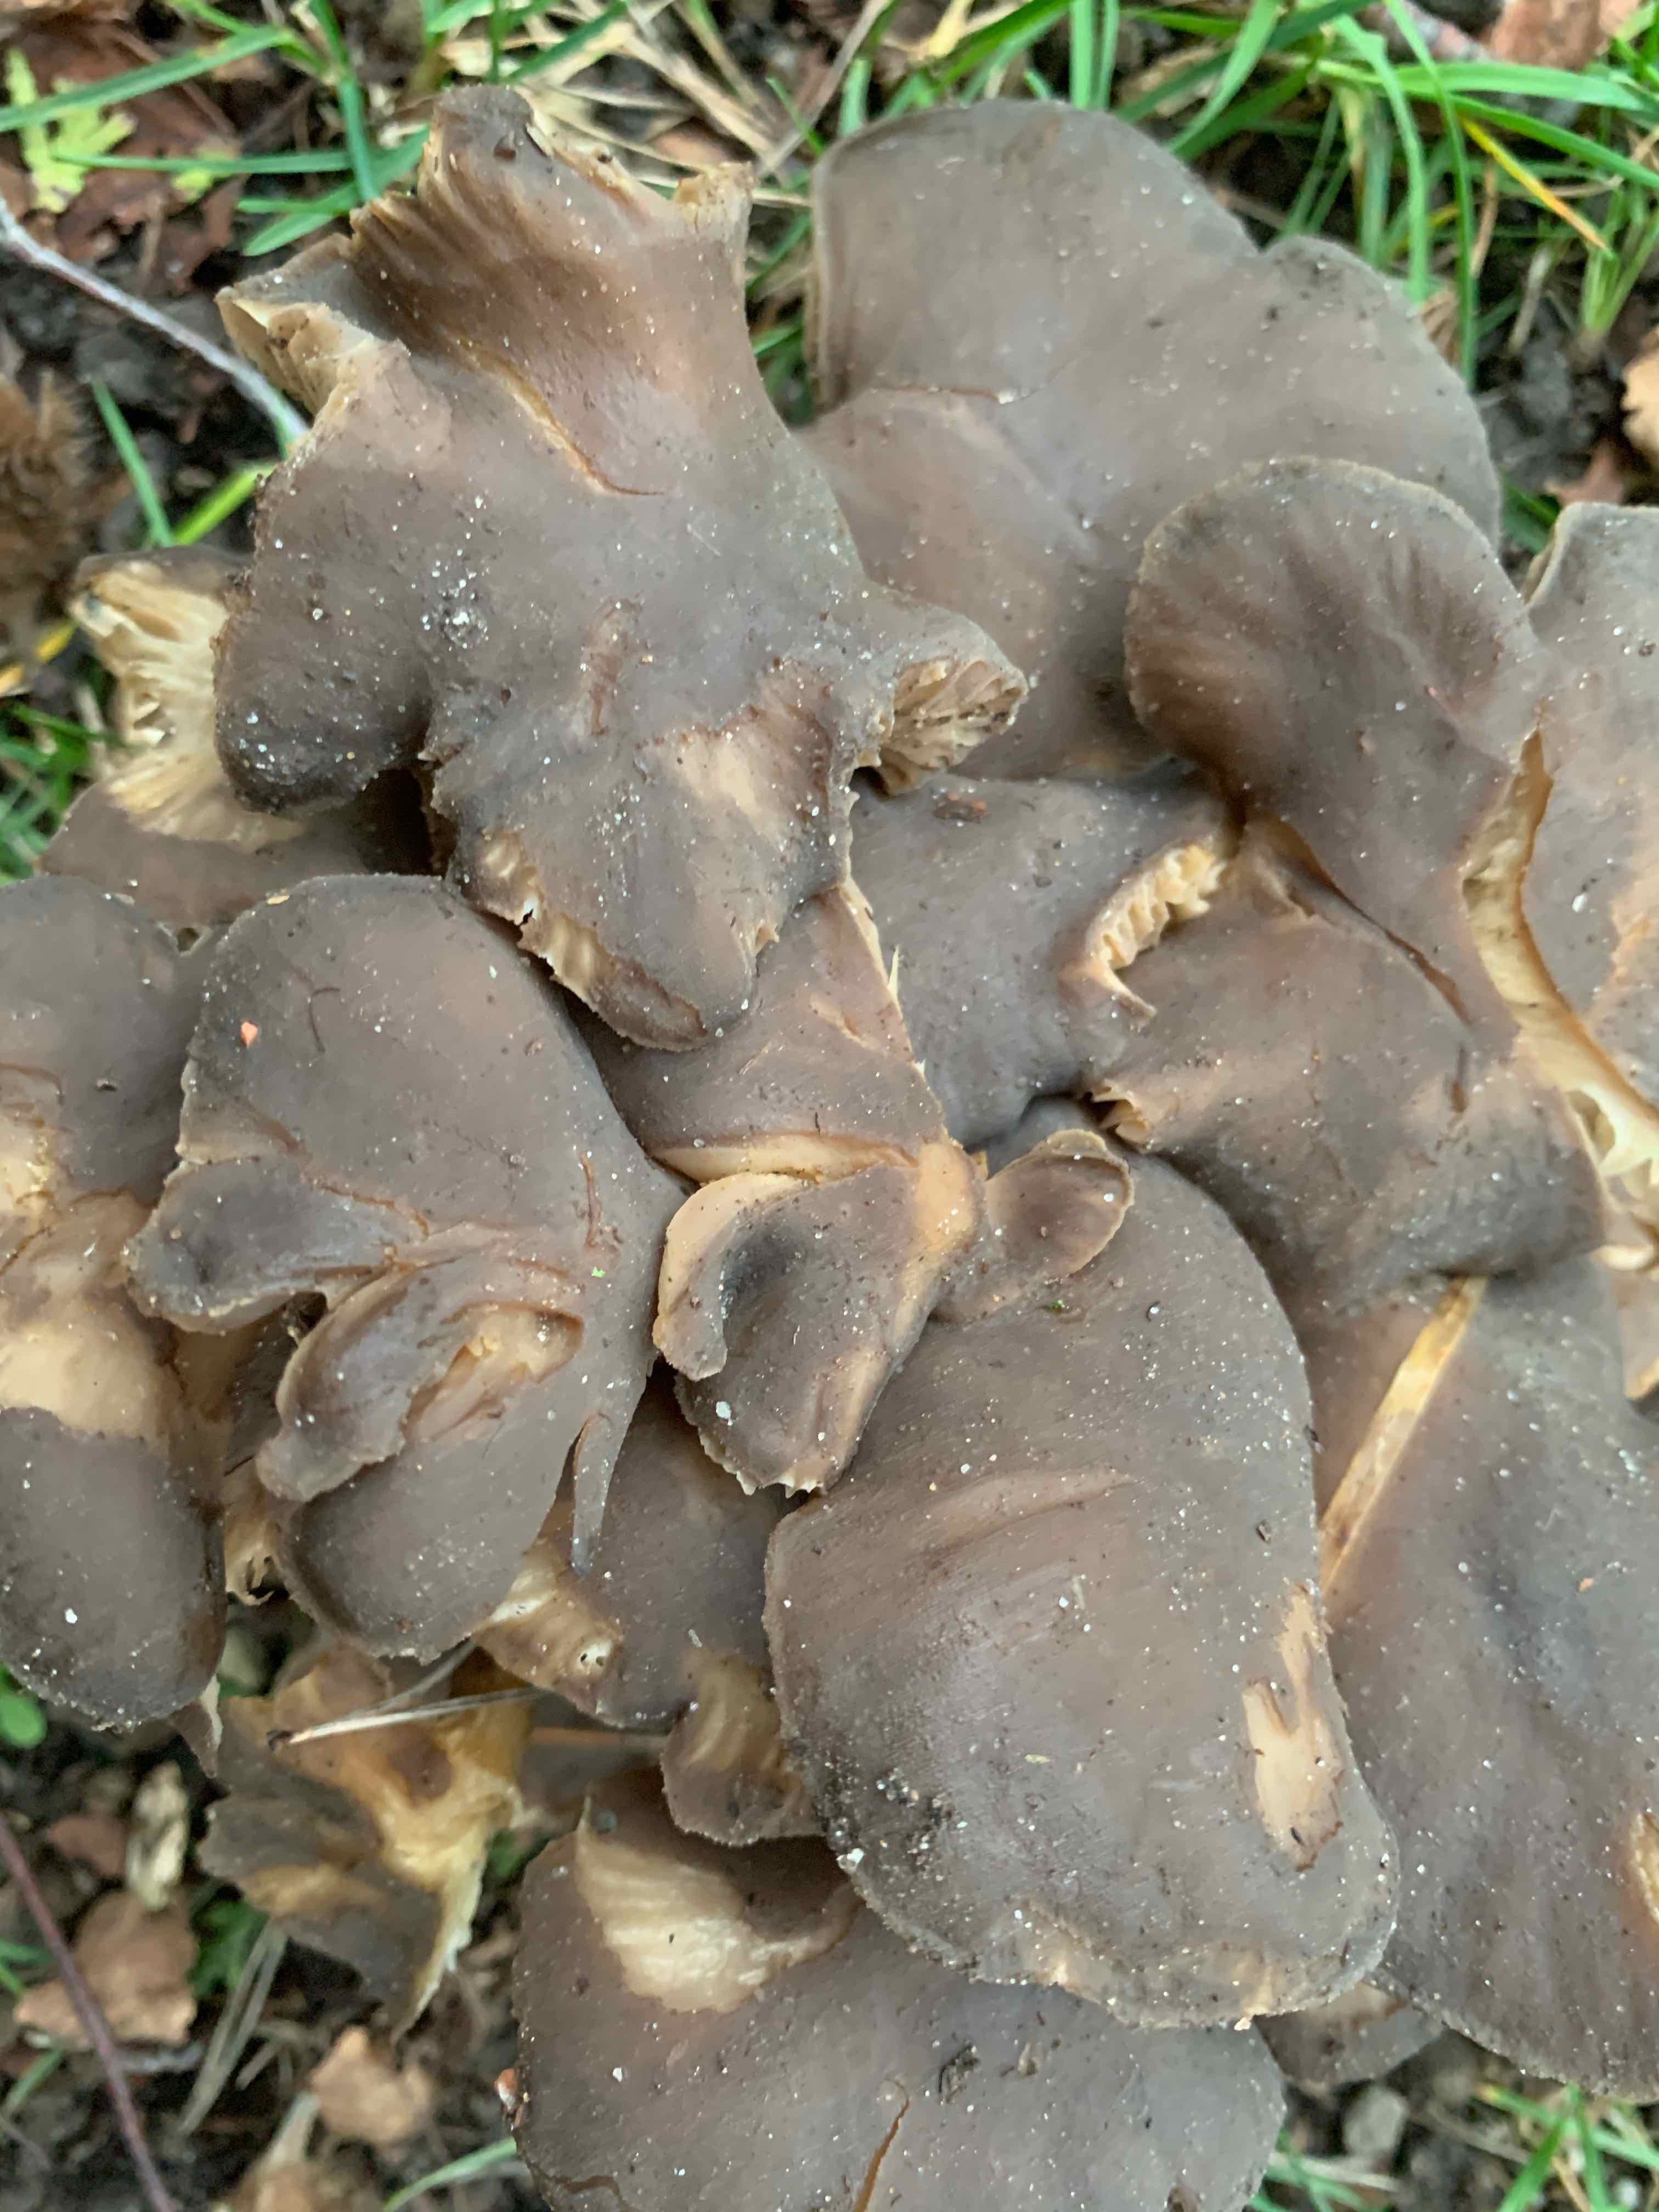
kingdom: Fungi
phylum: Basidiomycota
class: Agaricomycetes
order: Agaricales
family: Lyophyllaceae
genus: Lyophyllum
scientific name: Lyophyllum decastes
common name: røggrå gråblad
